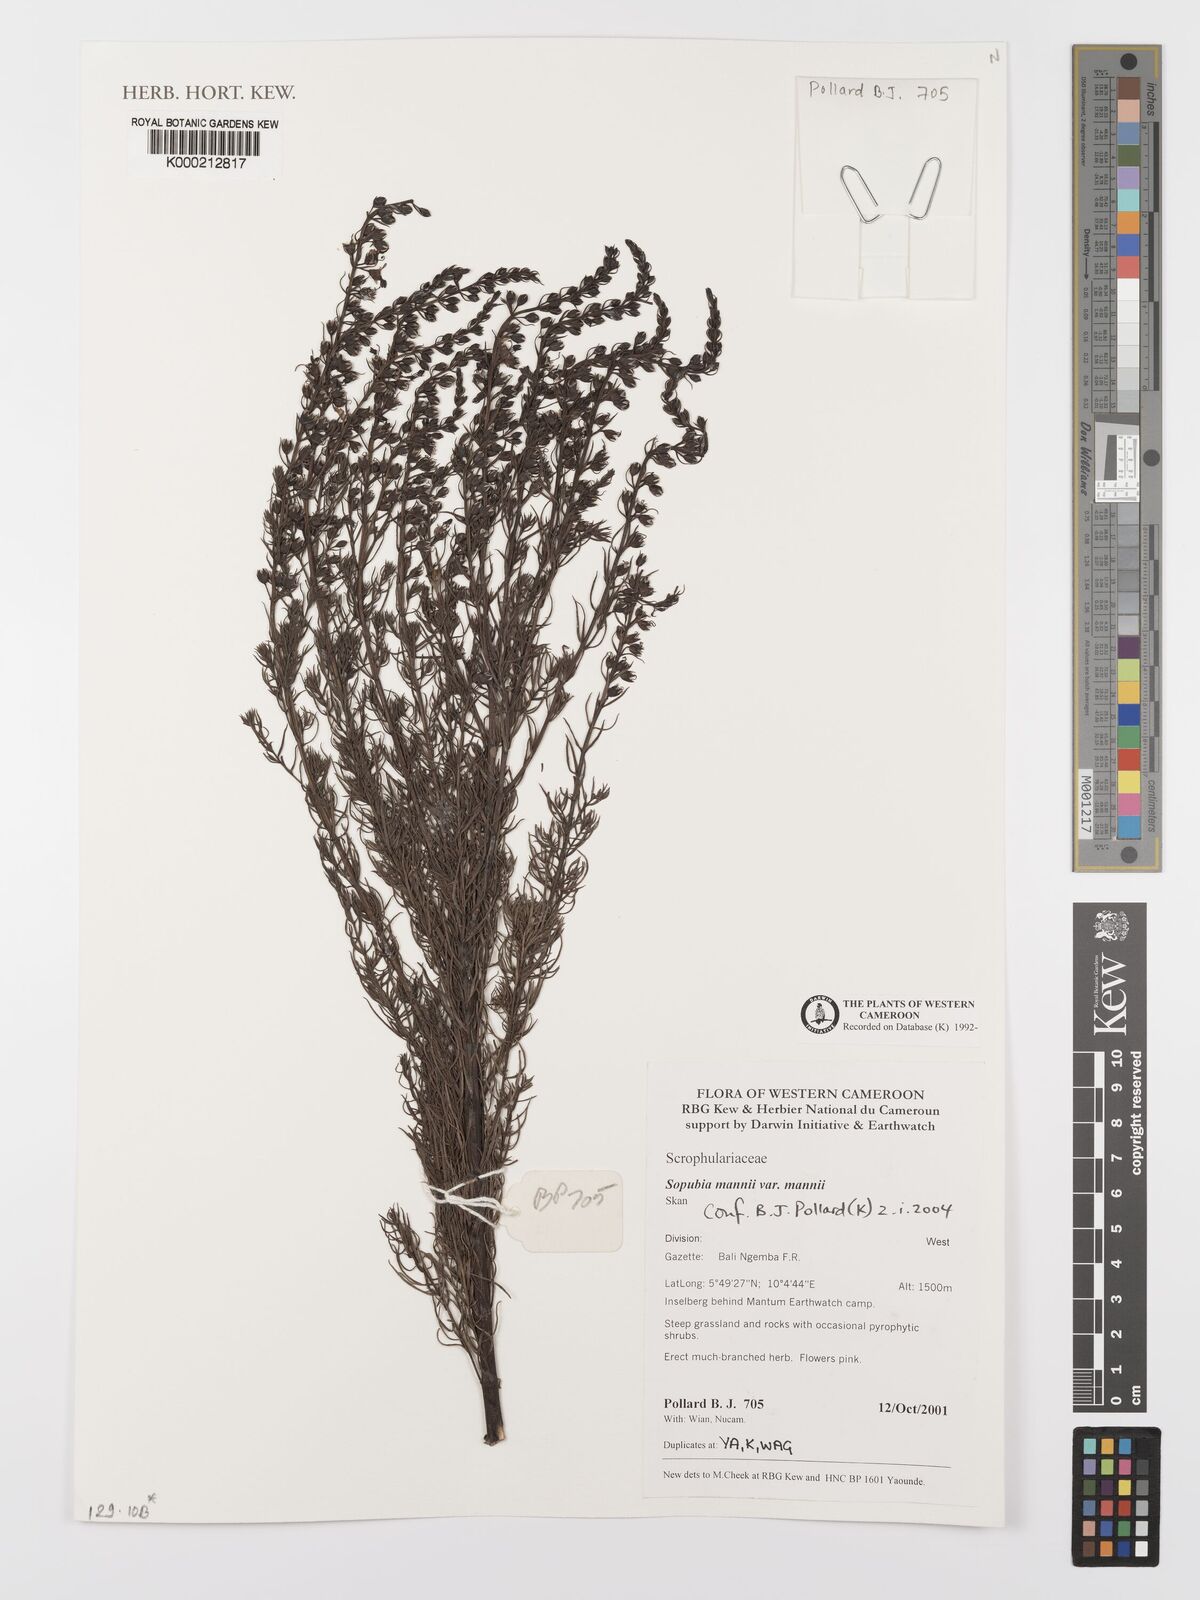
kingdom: Plantae
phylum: Tracheophyta
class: Magnoliopsida
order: Lamiales
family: Orobanchaceae
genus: Sopubia
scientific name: Sopubia mannii
